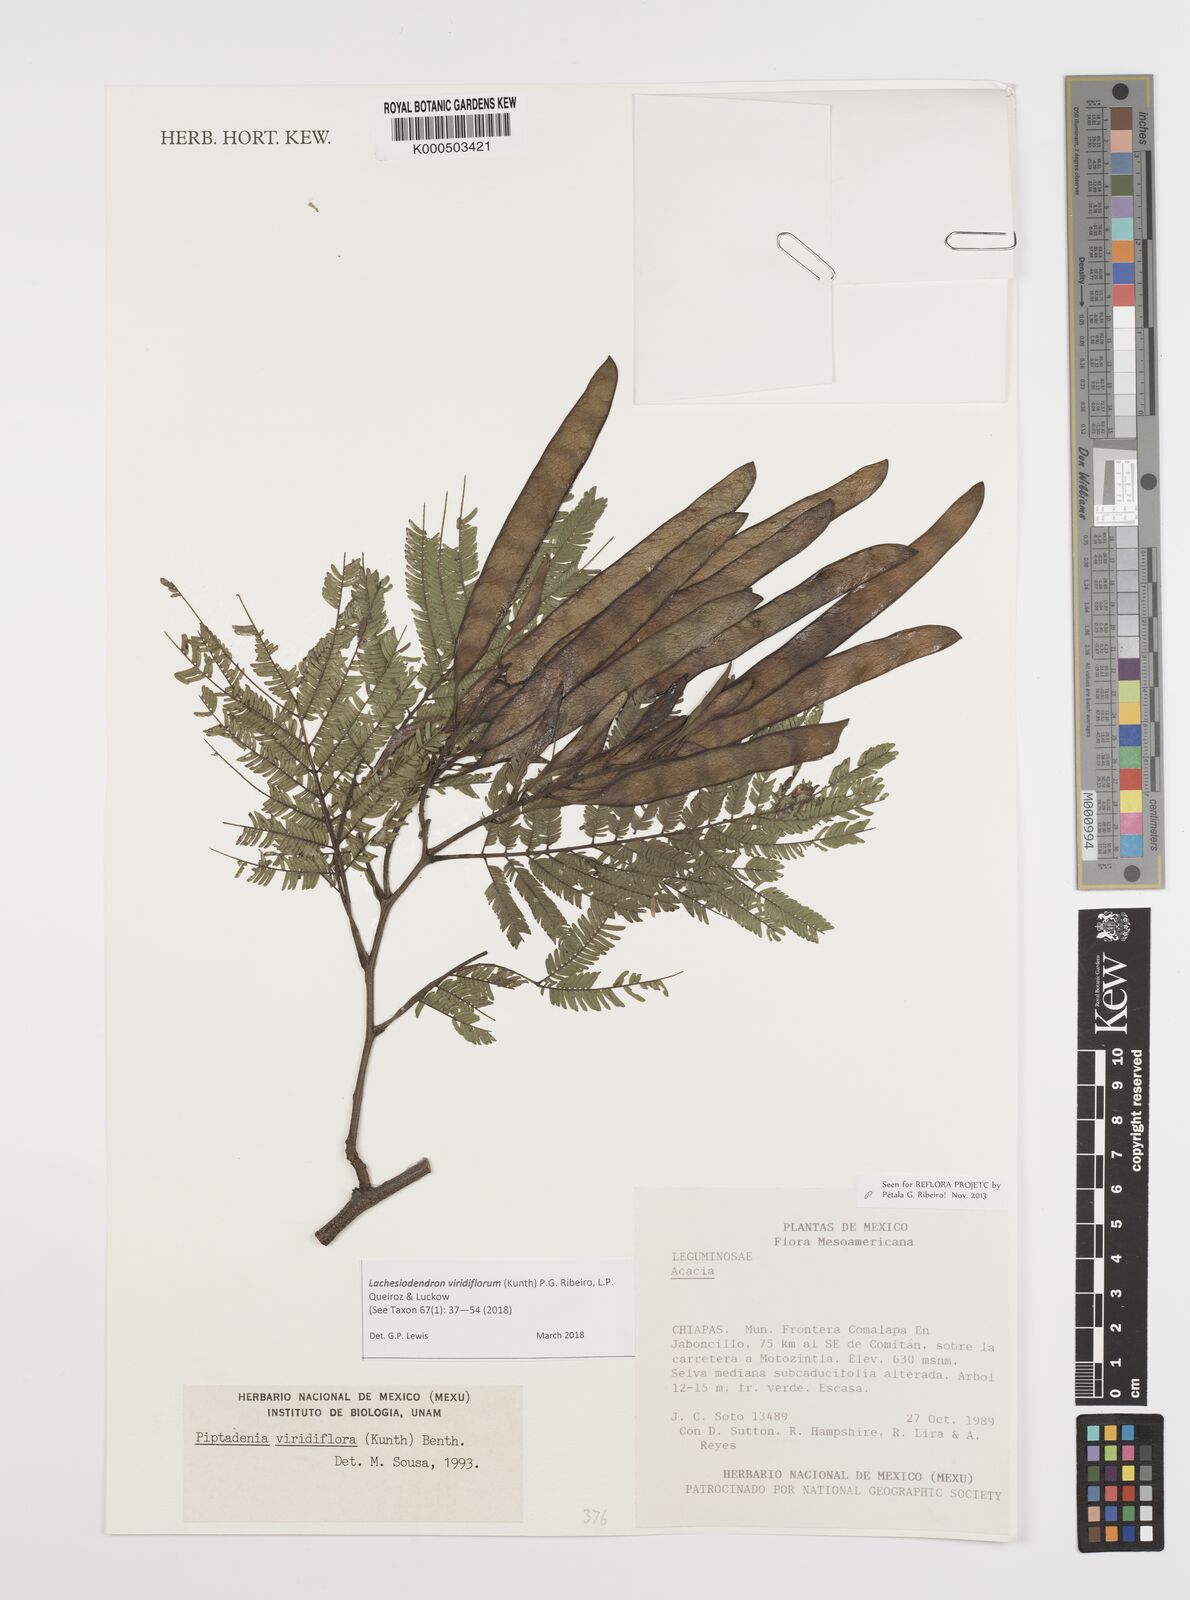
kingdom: Plantae
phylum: Tracheophyta
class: Magnoliopsida
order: Fabales
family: Fabaceae
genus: Lachesiodendron
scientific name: Lachesiodendron viridiflorum
